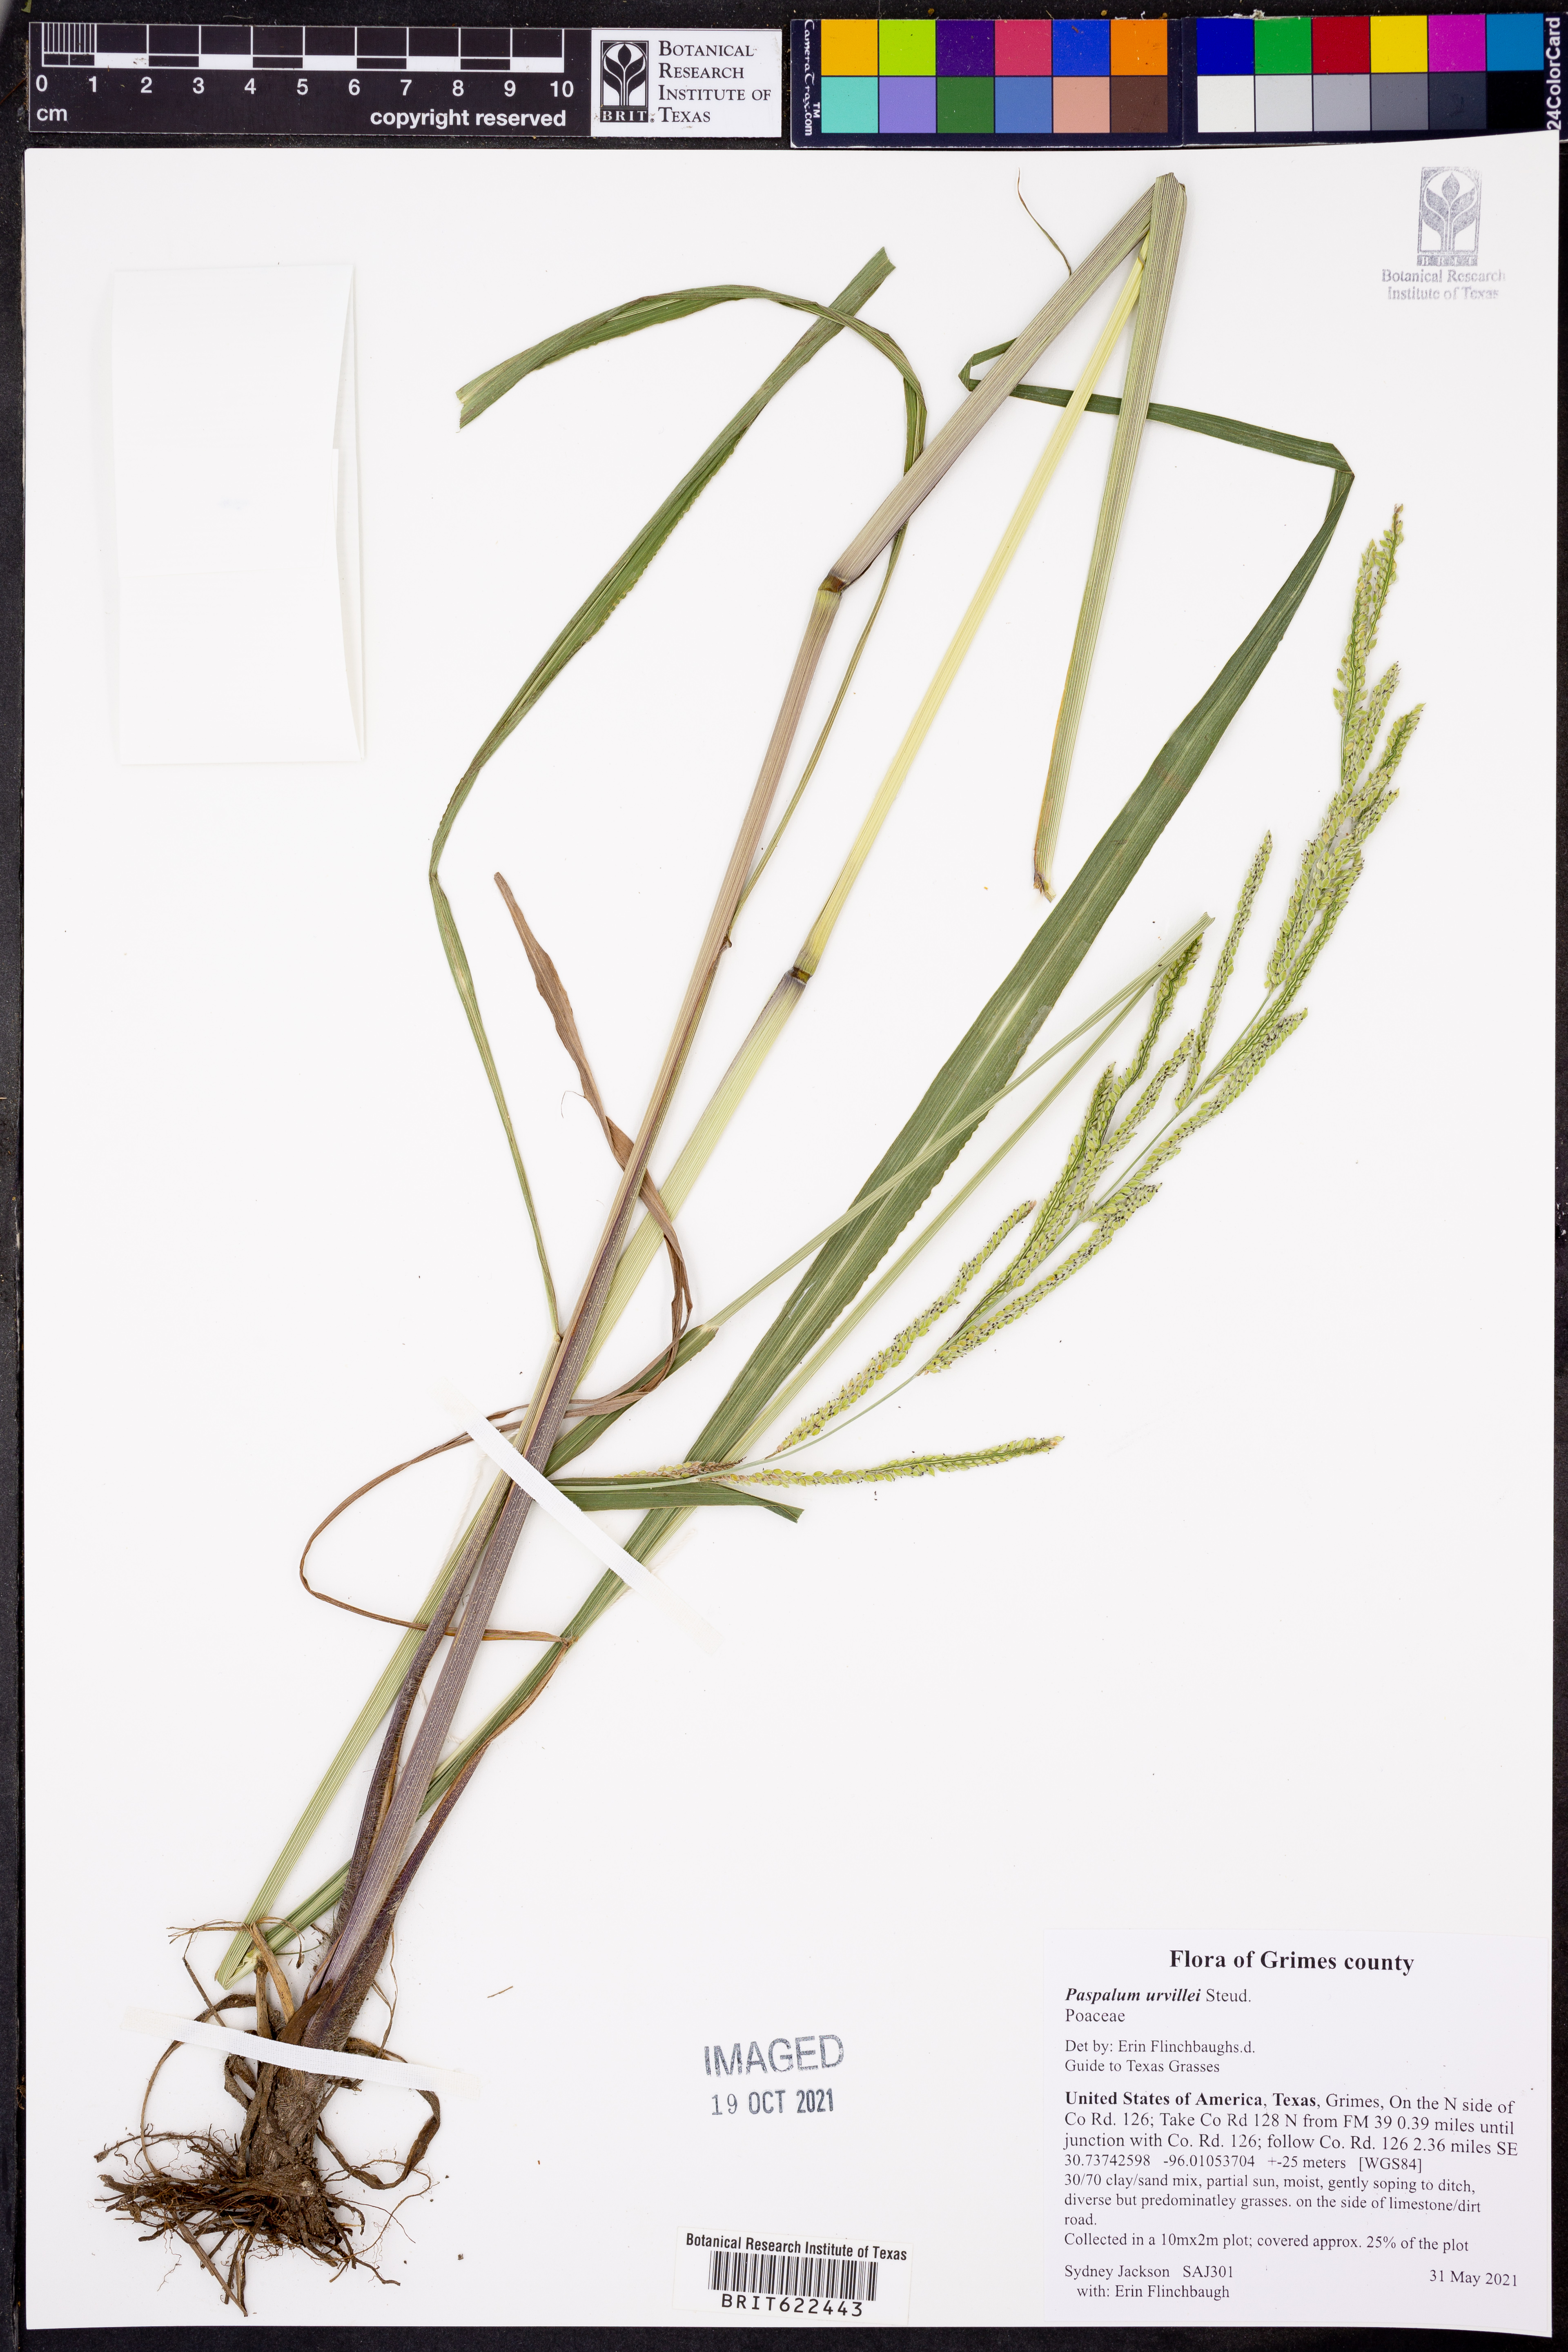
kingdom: Plantae
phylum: Tracheophyta
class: Liliopsida
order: Poales
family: Poaceae
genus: Paspalum
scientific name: Paspalum urvillei
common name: Vasey's grass
